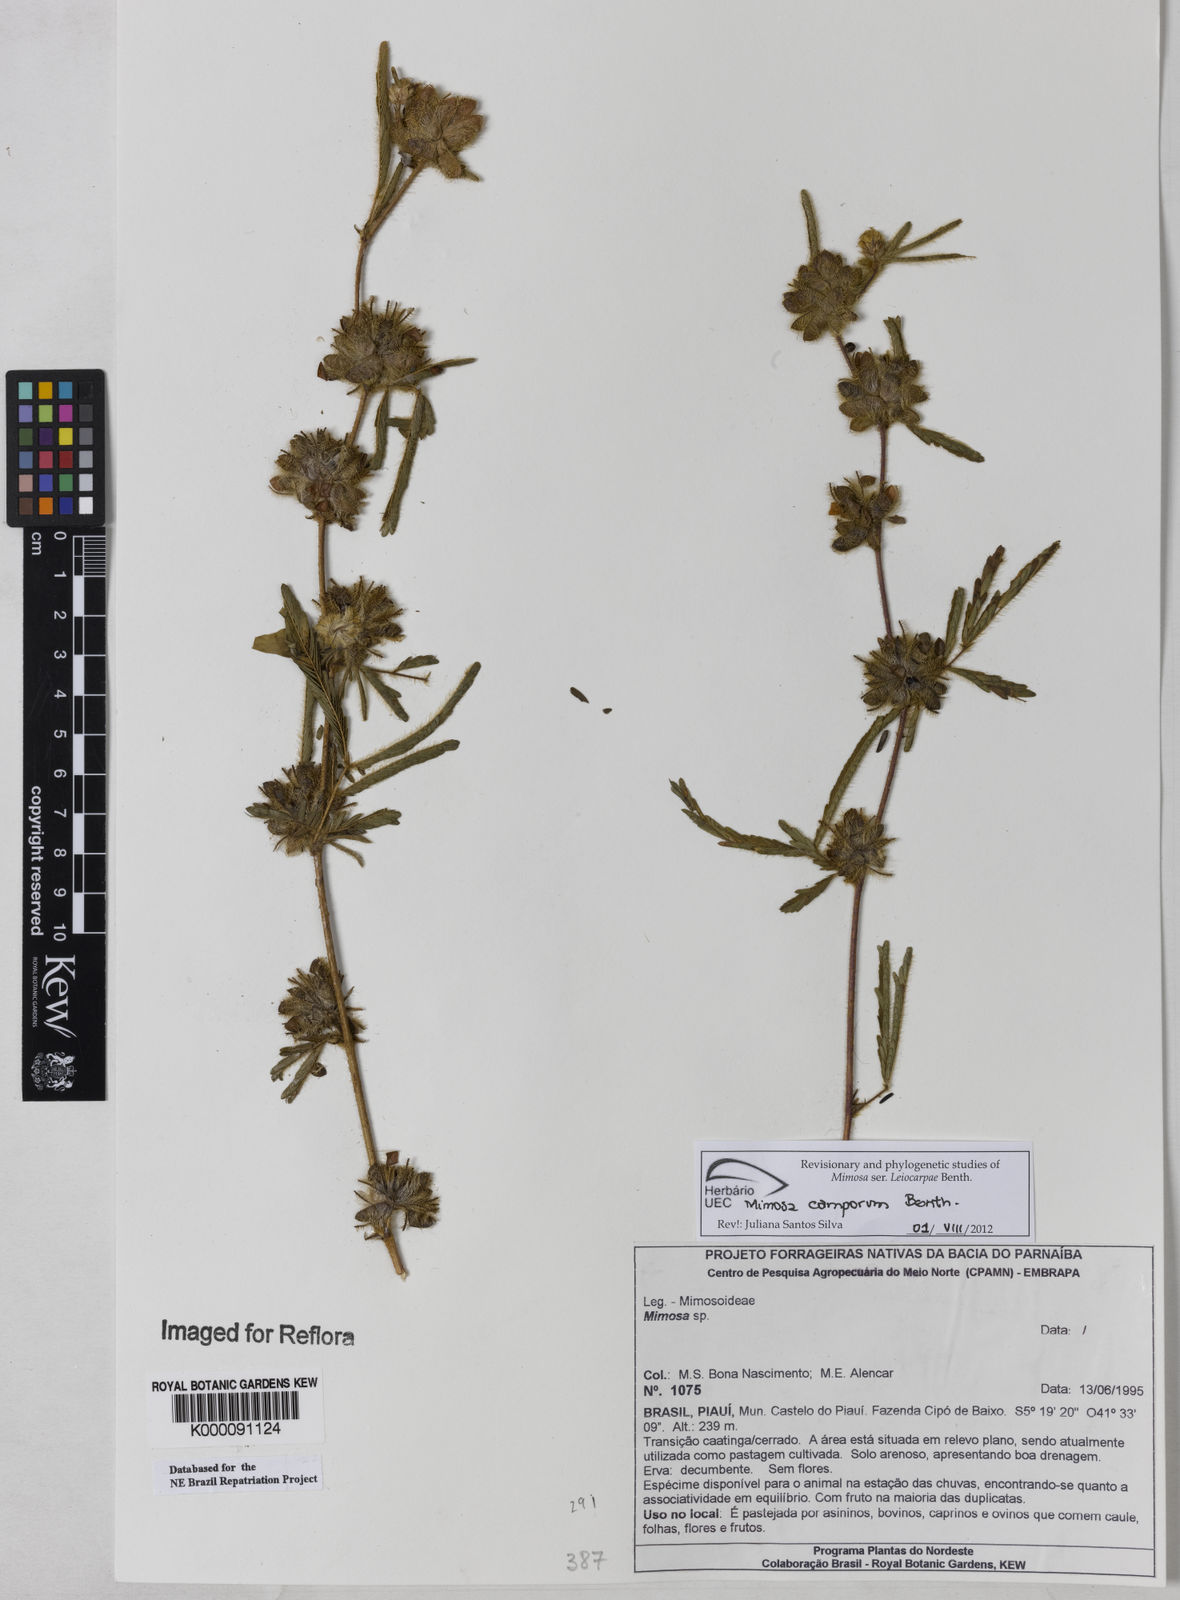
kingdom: Plantae
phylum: Tracheophyta
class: Magnoliopsida
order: Fabales
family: Fabaceae
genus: Mimosa
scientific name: Mimosa
